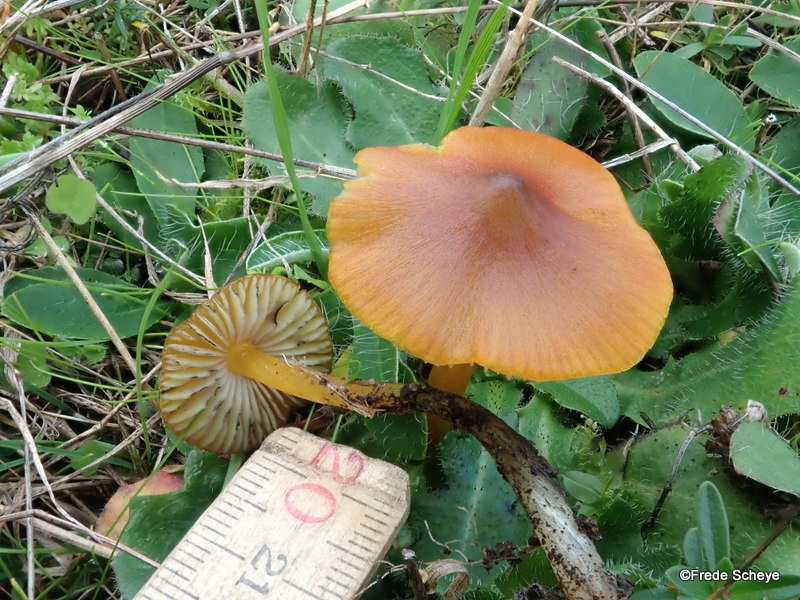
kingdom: Fungi
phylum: Basidiomycota
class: Agaricomycetes
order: Agaricales
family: Hygrophoraceae
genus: Hygrocybe
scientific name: Hygrocybe conica
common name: kegle-vokshat
